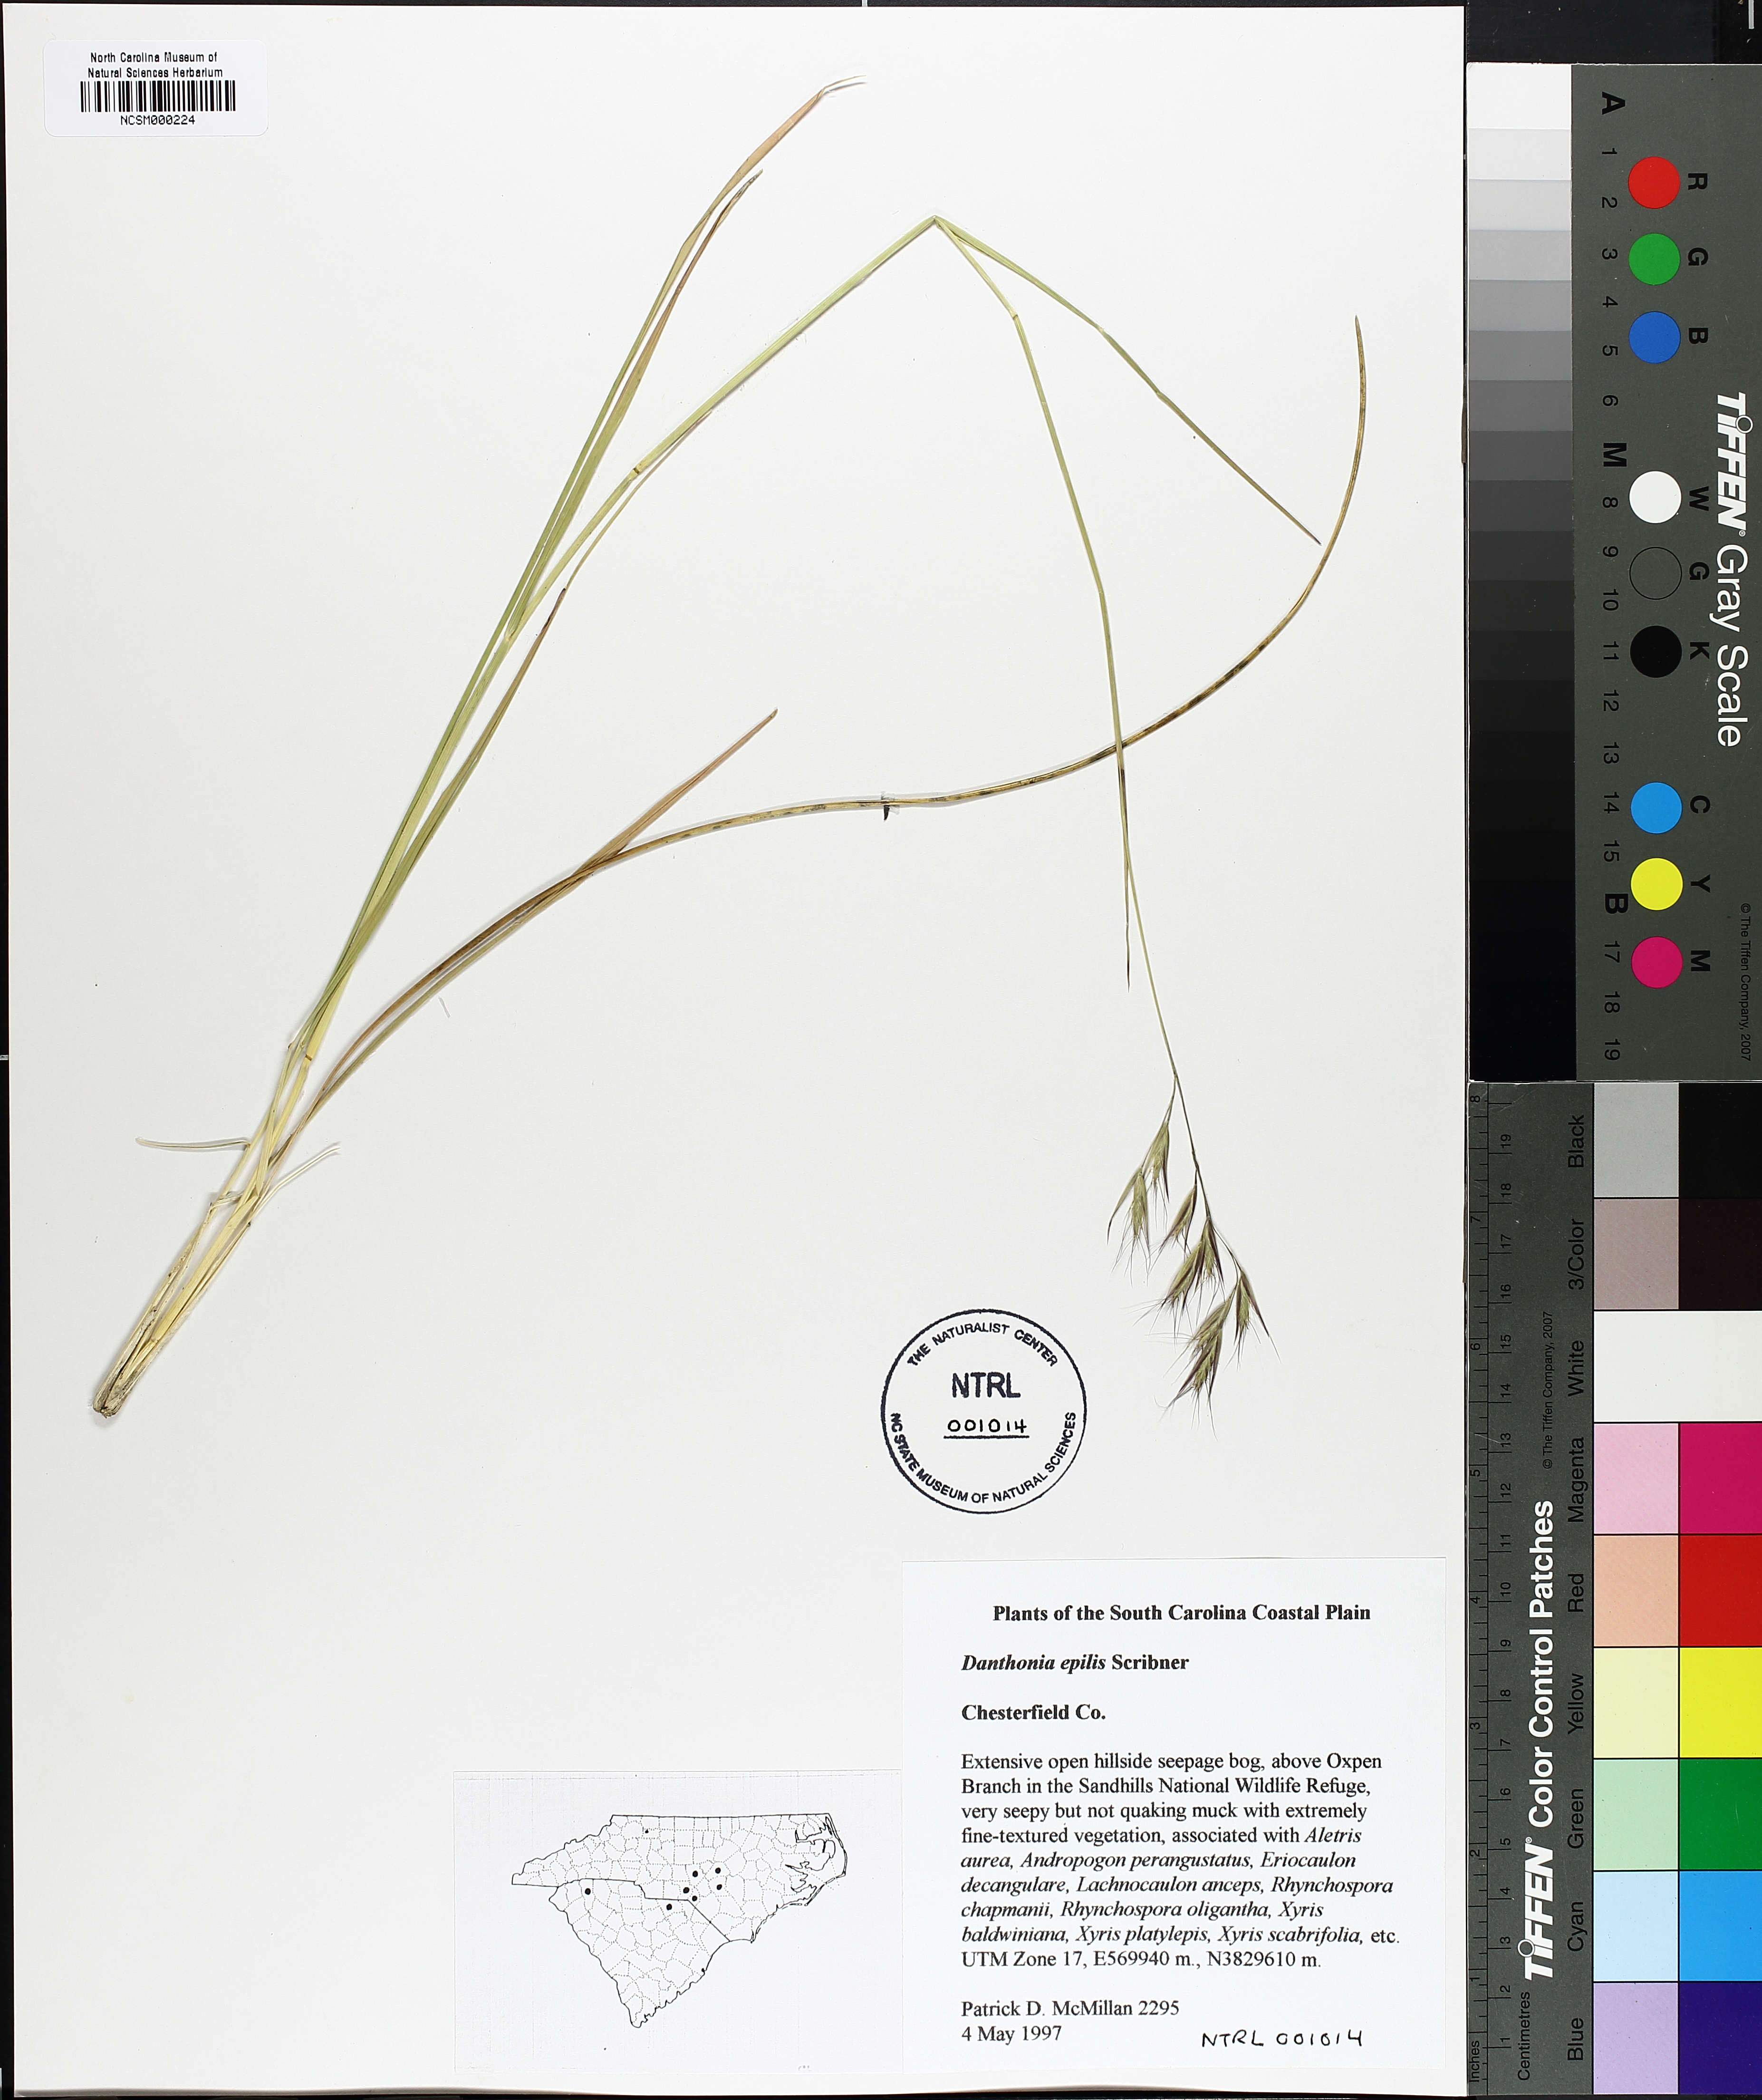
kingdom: Plantae
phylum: Tracheophyta
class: Liliopsida
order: Poales
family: Poaceae
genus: Danthonia
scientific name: Danthonia sericea
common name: Downy danthonia
